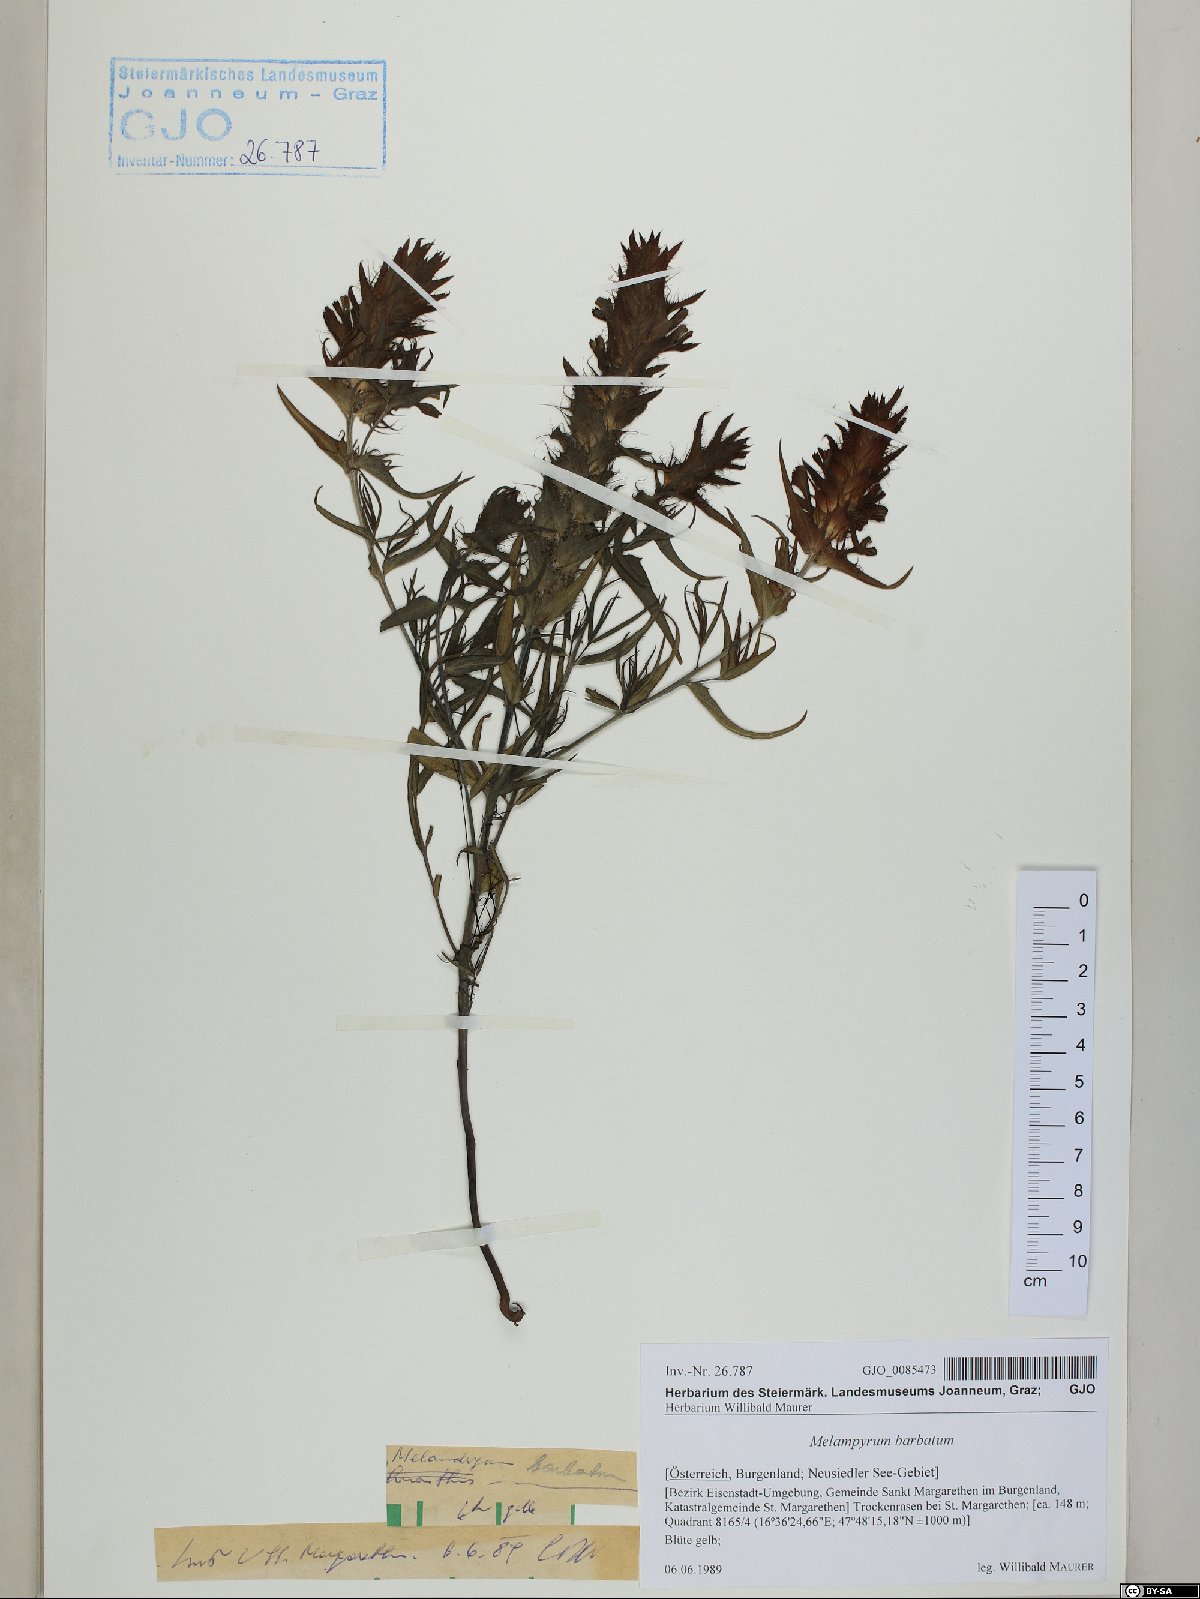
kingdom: Plantae
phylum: Tracheophyta
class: Magnoliopsida
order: Lamiales
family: Orobanchaceae
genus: Melampyrum
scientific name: Melampyrum barbatum
